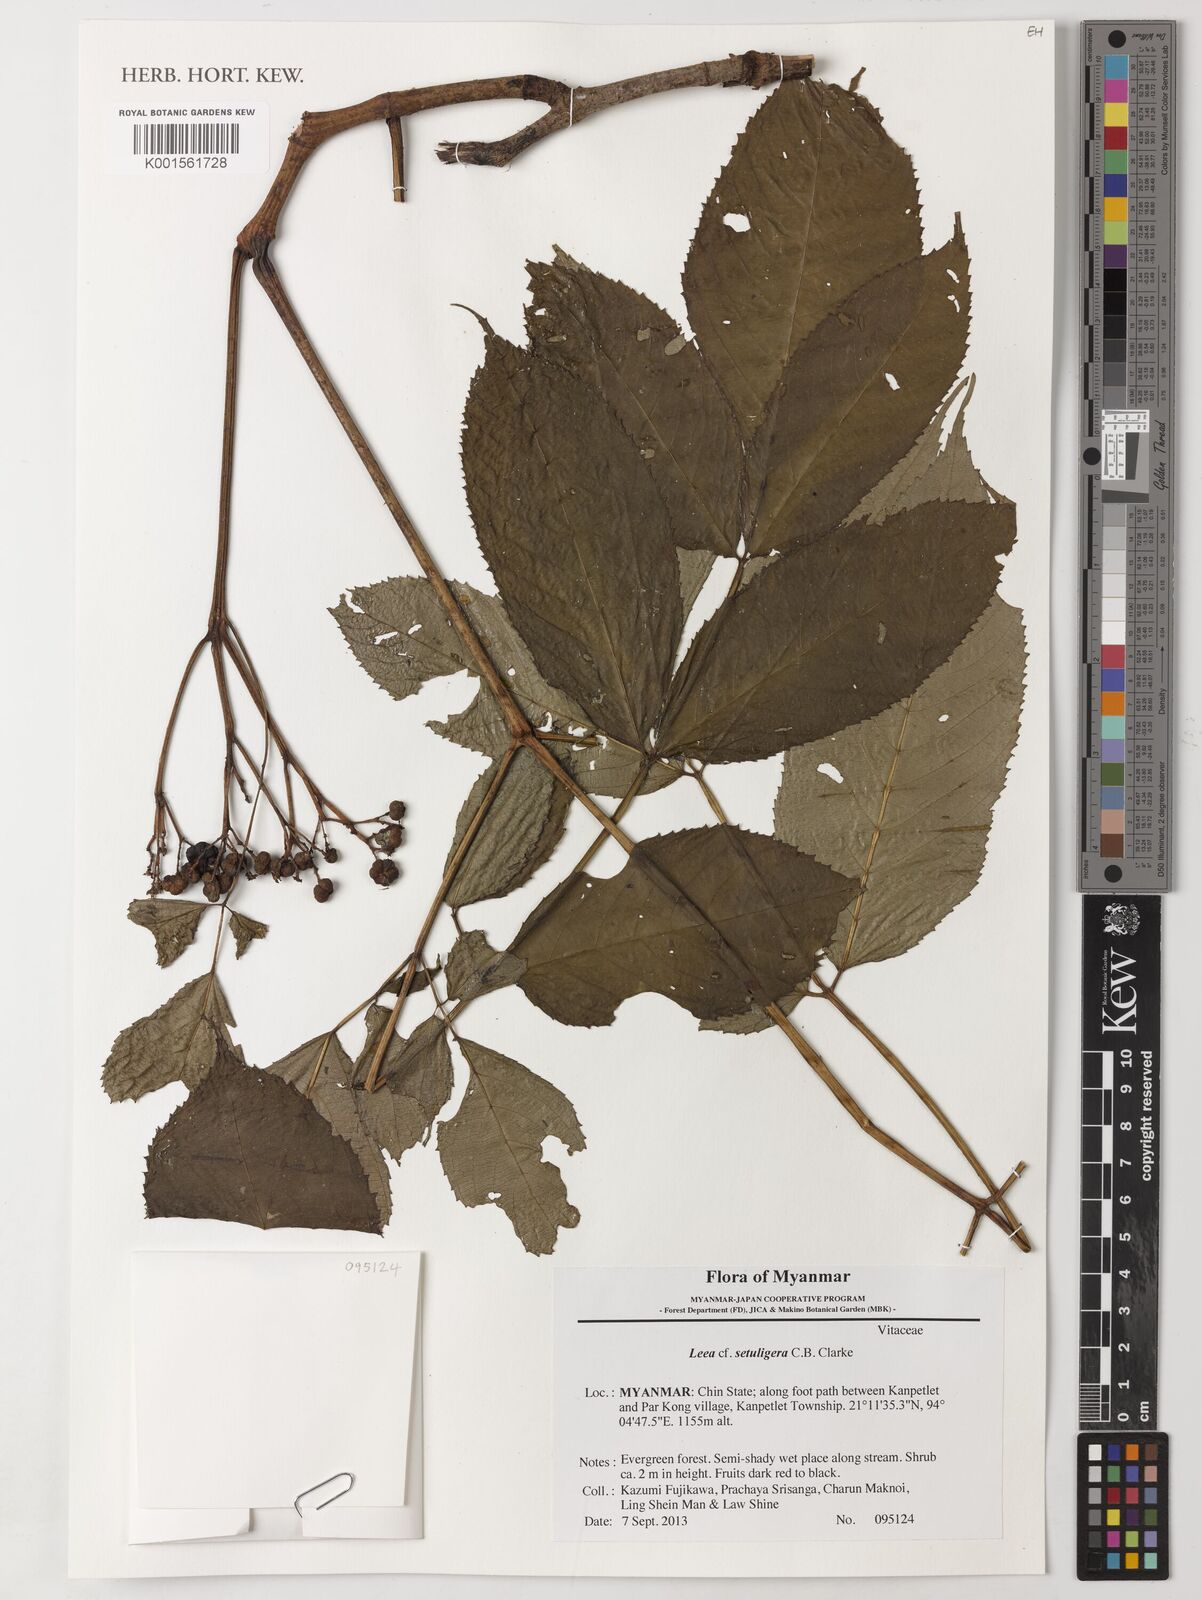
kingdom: Plantae
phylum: Tracheophyta
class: Magnoliopsida
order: Vitales
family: Vitaceae
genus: Leea
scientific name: Leea setuligera
